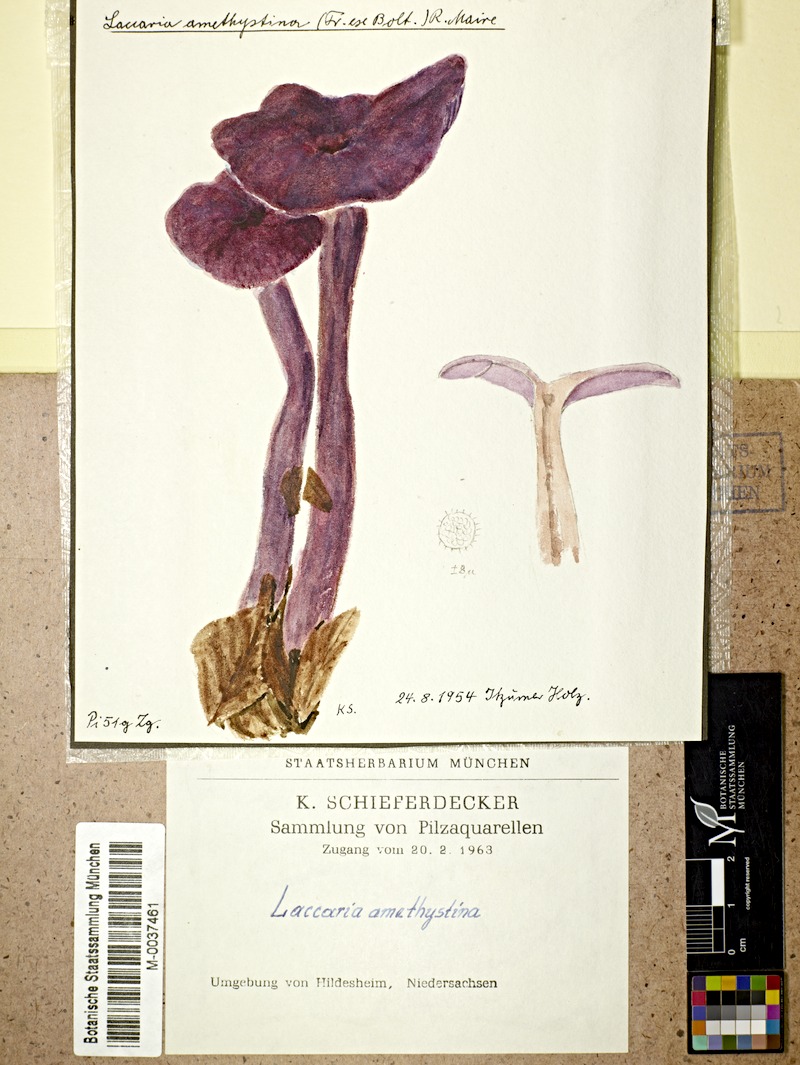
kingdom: Fungi
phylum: Basidiomycota
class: Agaricomycetes
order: Agaricales
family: Hydnangiaceae
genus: Laccaria
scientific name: Laccaria laccata
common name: Deceiver
